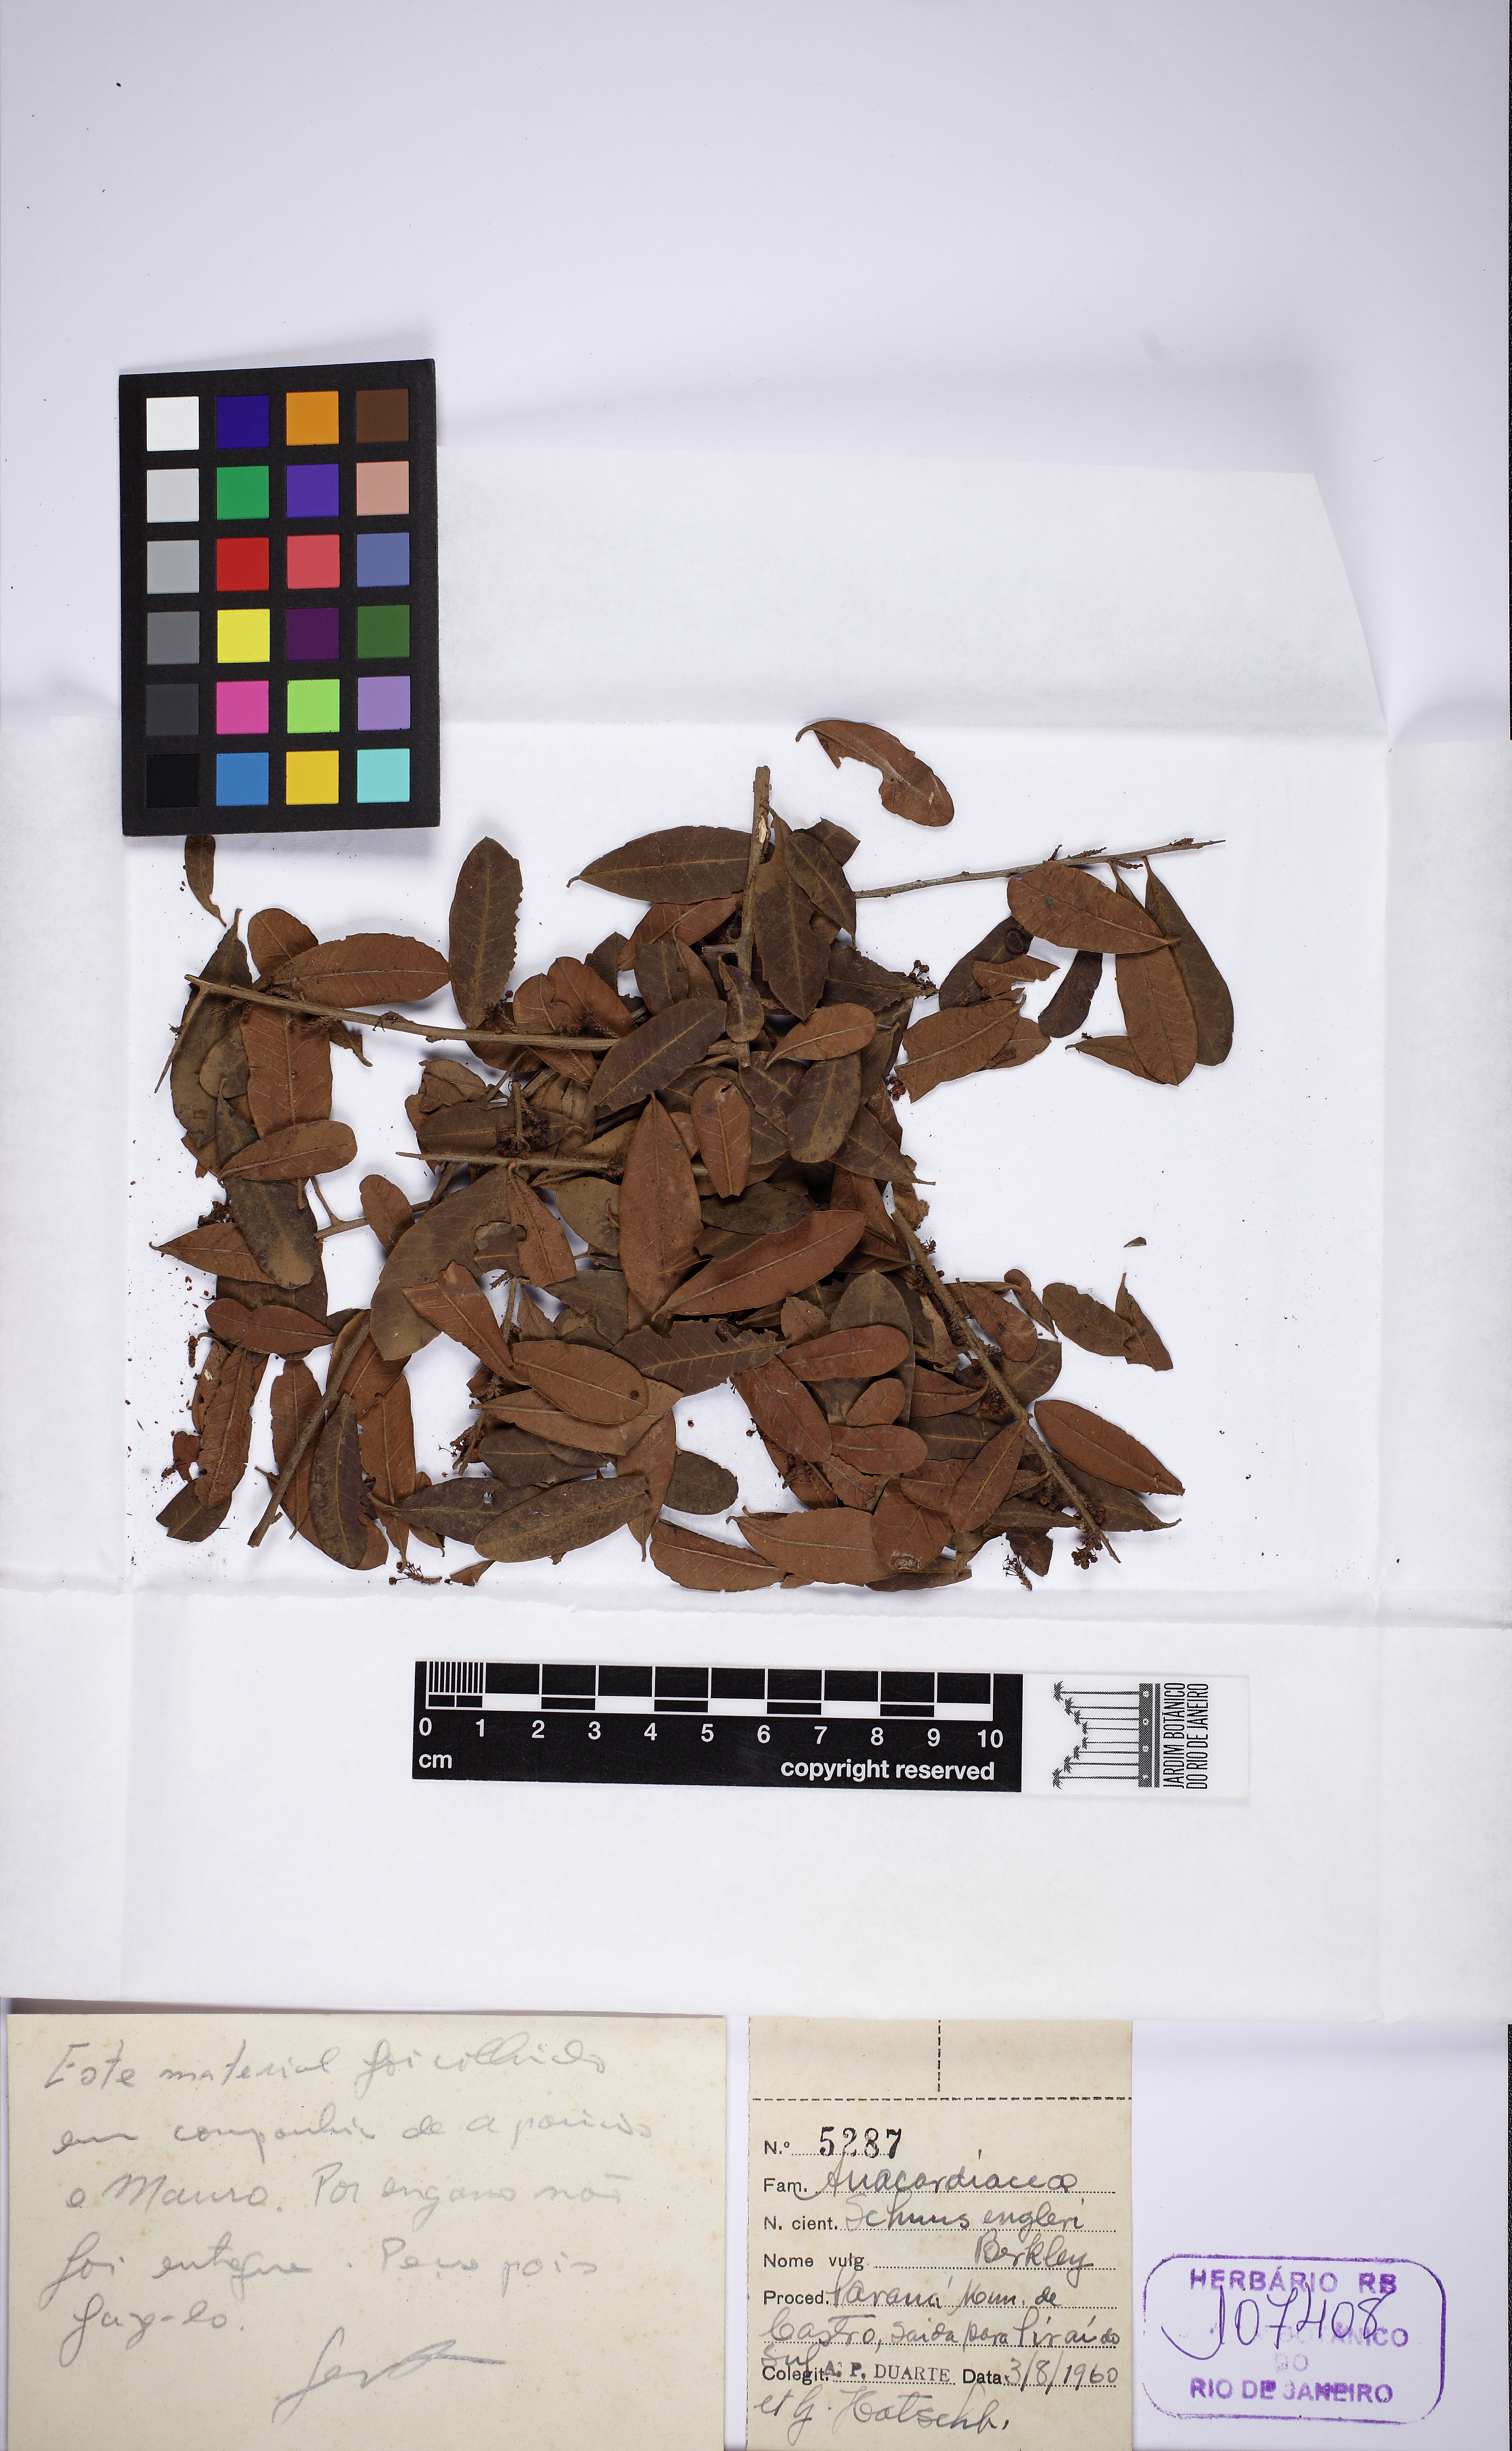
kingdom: Plantae
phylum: Tracheophyta
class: Magnoliopsida
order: Sapindales
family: Anacardiaceae
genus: Schinus
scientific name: Schinus engleri
